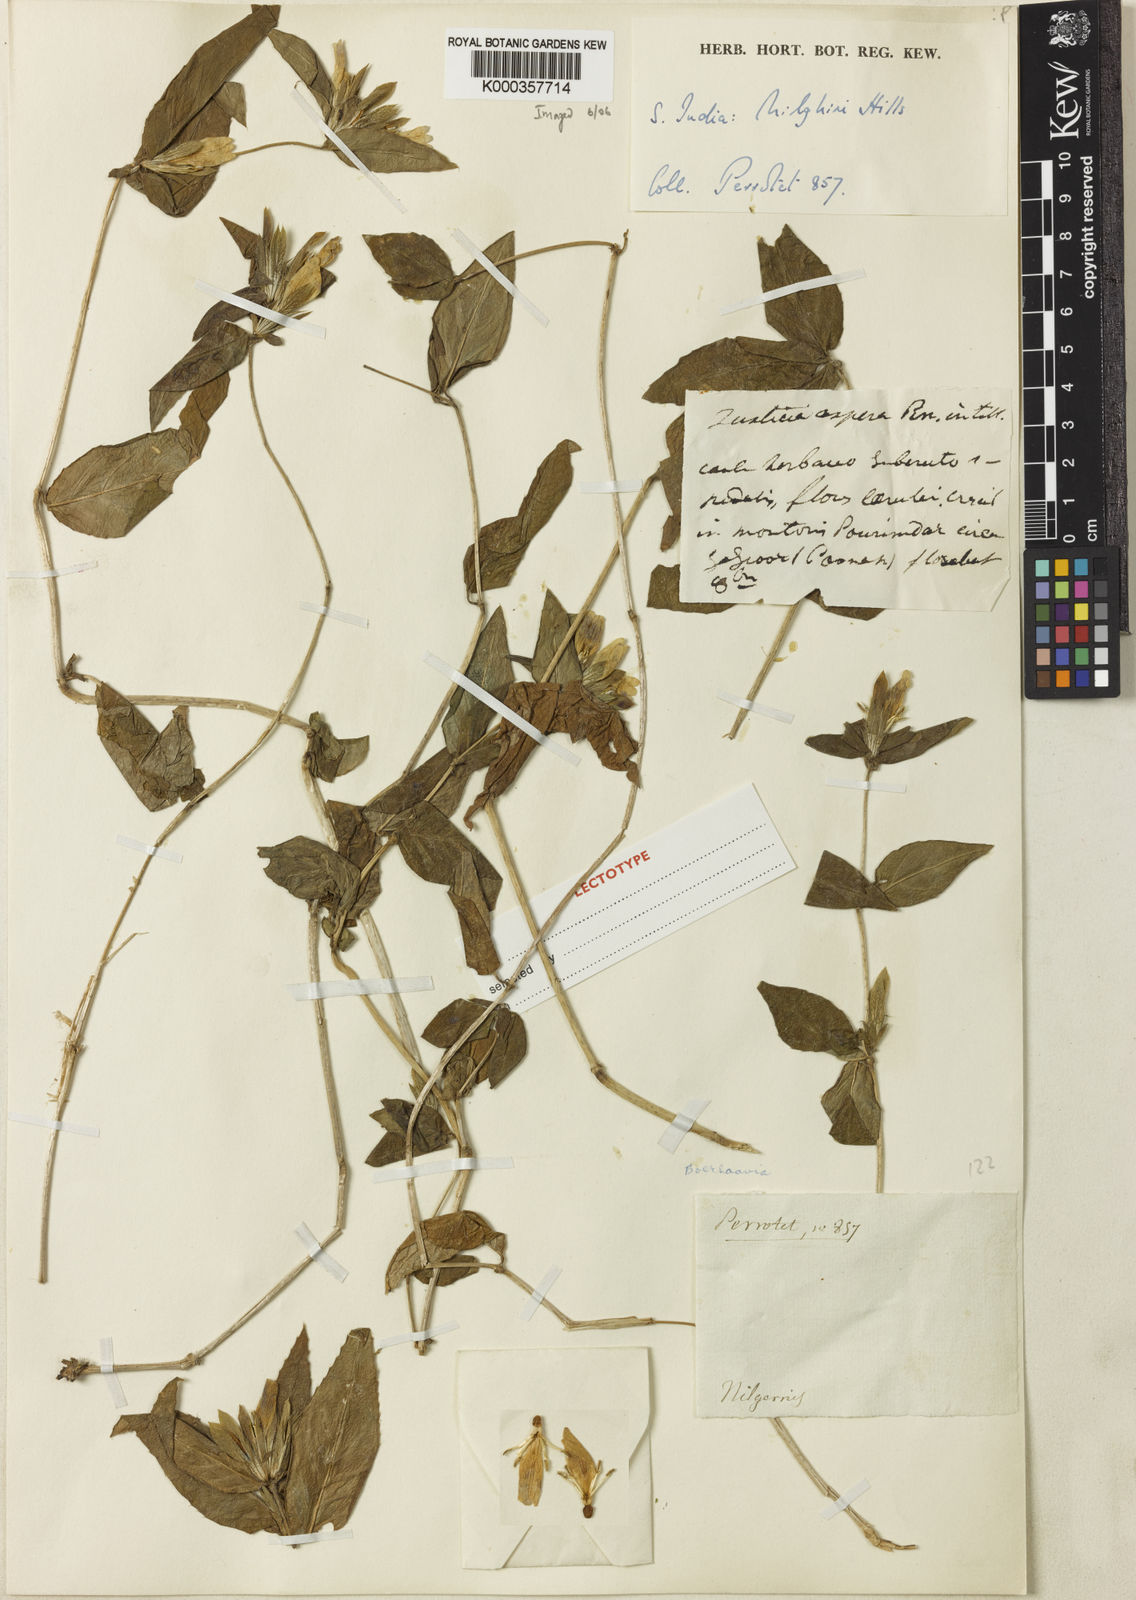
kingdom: Plantae
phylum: Tracheophyta
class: Magnoliopsida
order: Lamiales
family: Acanthaceae
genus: Cynarospermum
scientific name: Cynarospermum asperrimum
